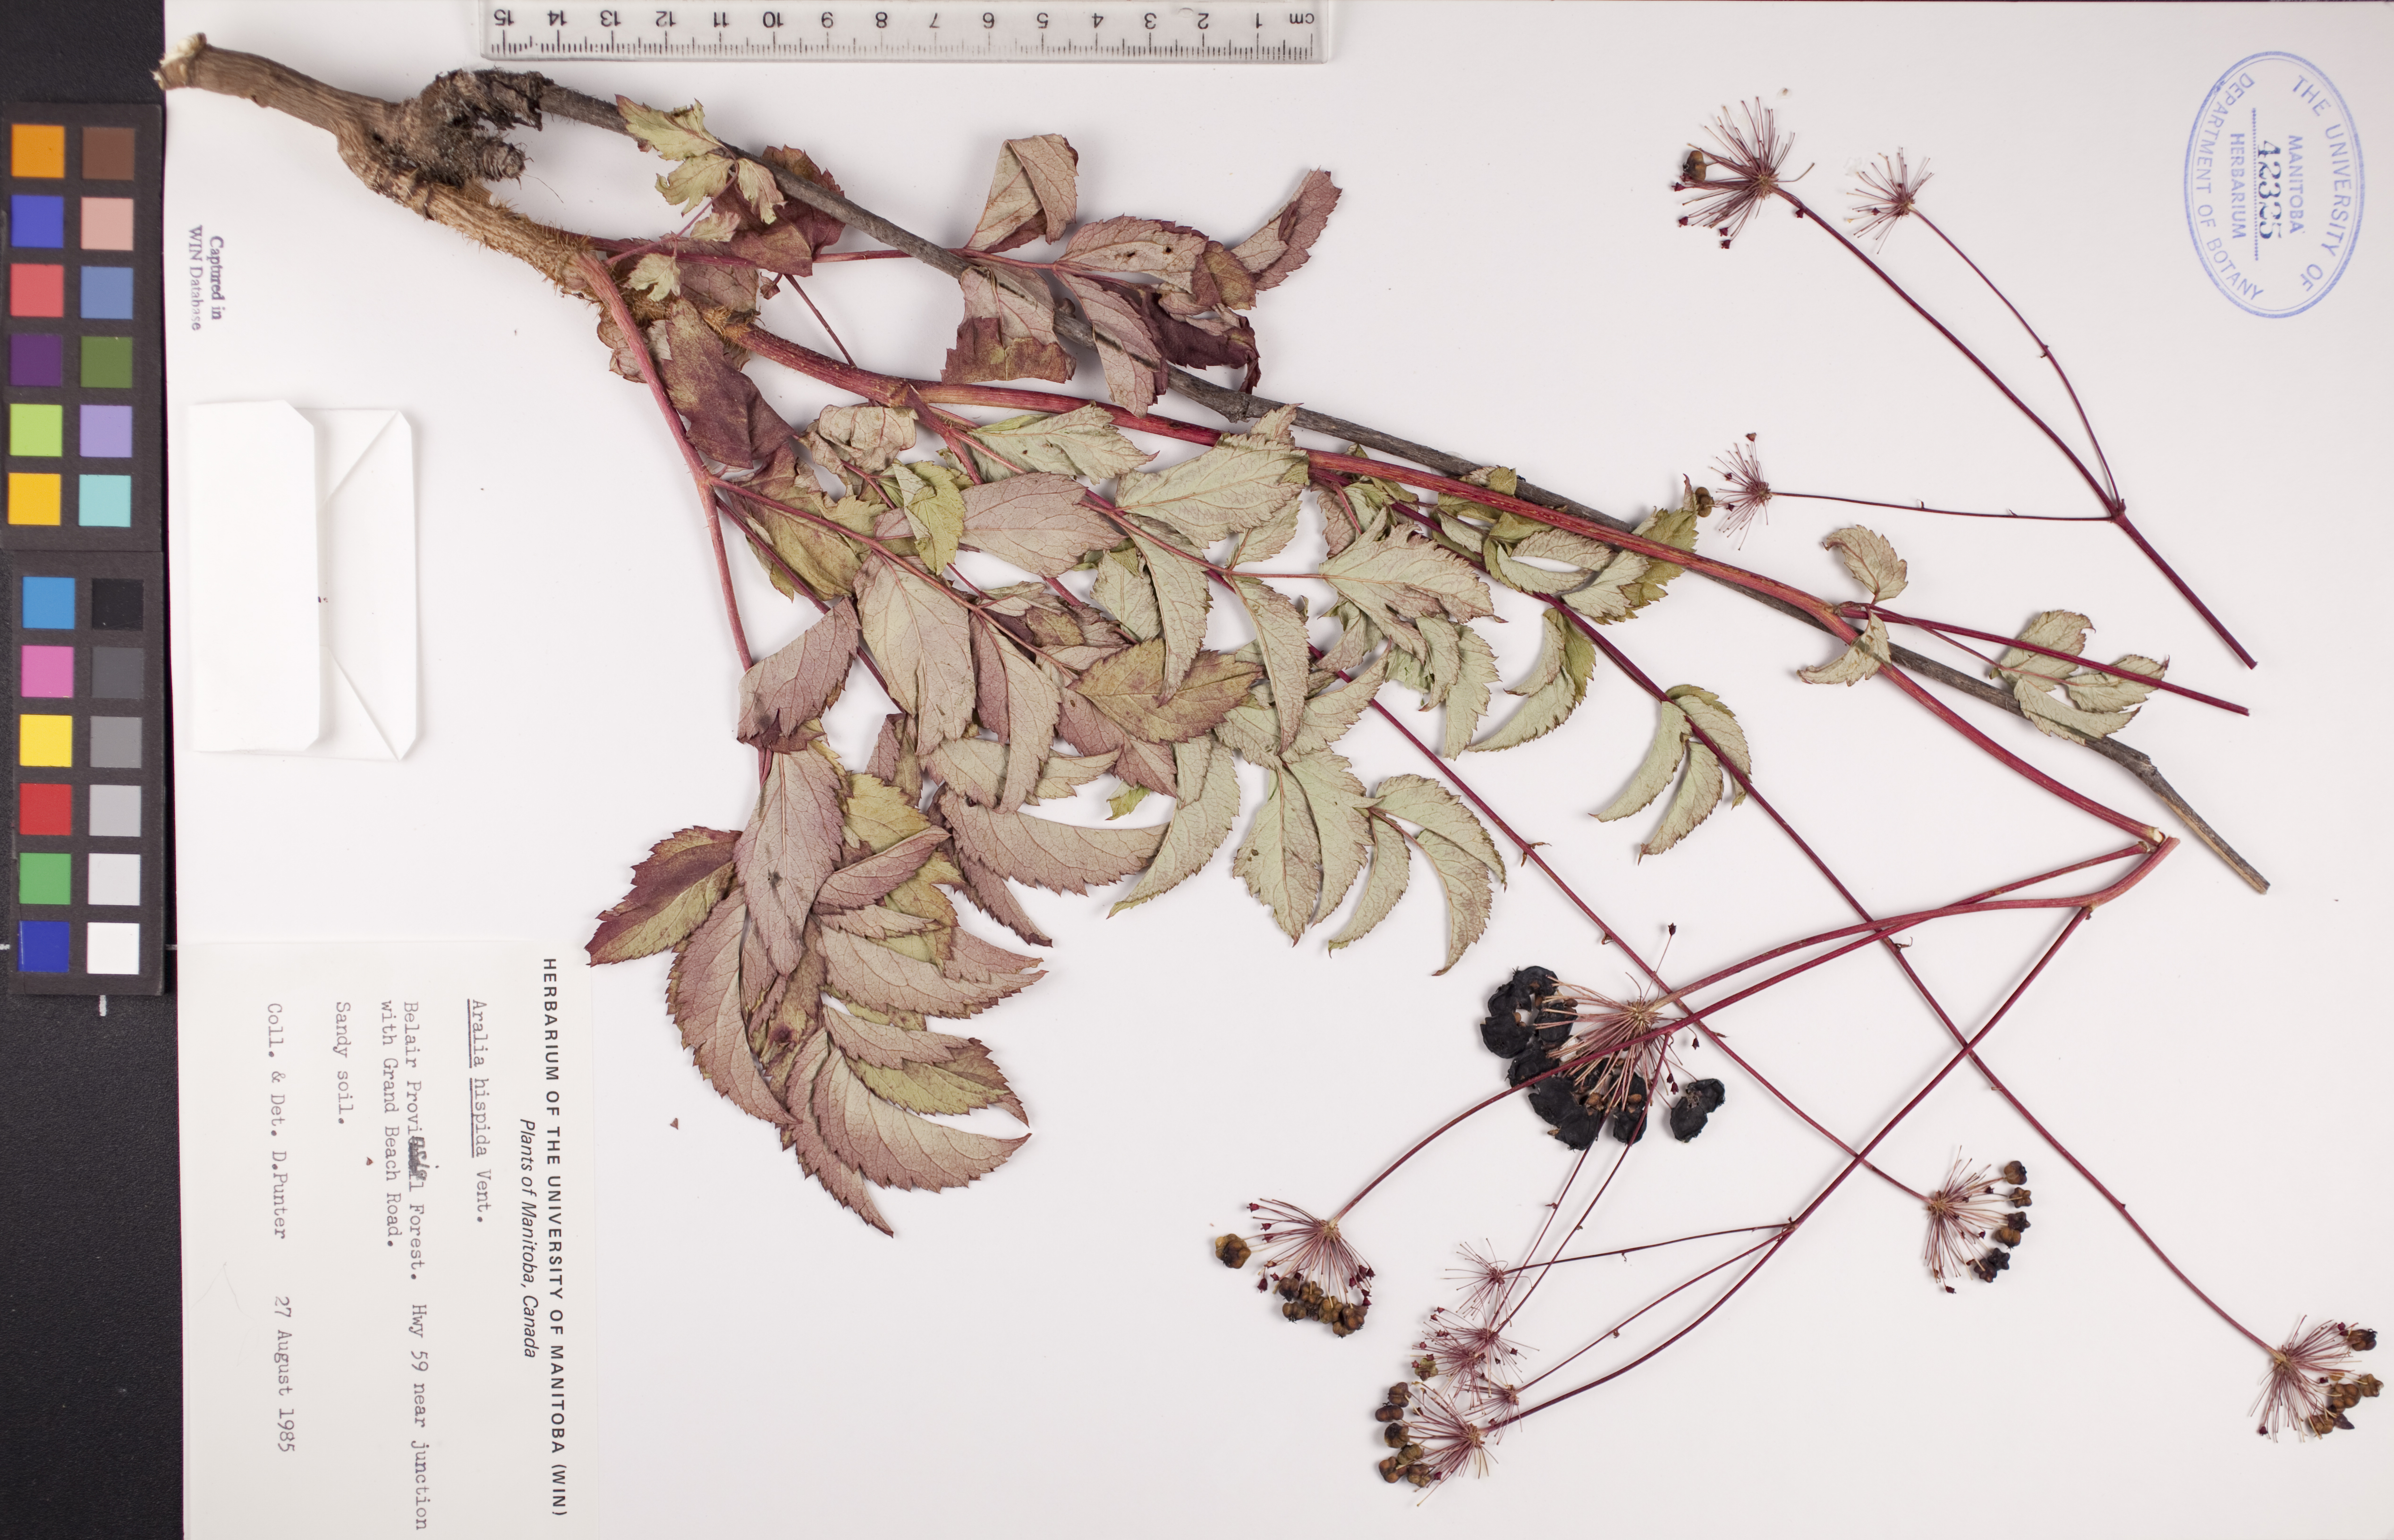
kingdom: Plantae
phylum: Tracheophyta
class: Magnoliopsida
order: Apiales
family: Araliaceae
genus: Aralia
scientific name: Aralia hispida
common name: Bristly sarsaparilla
